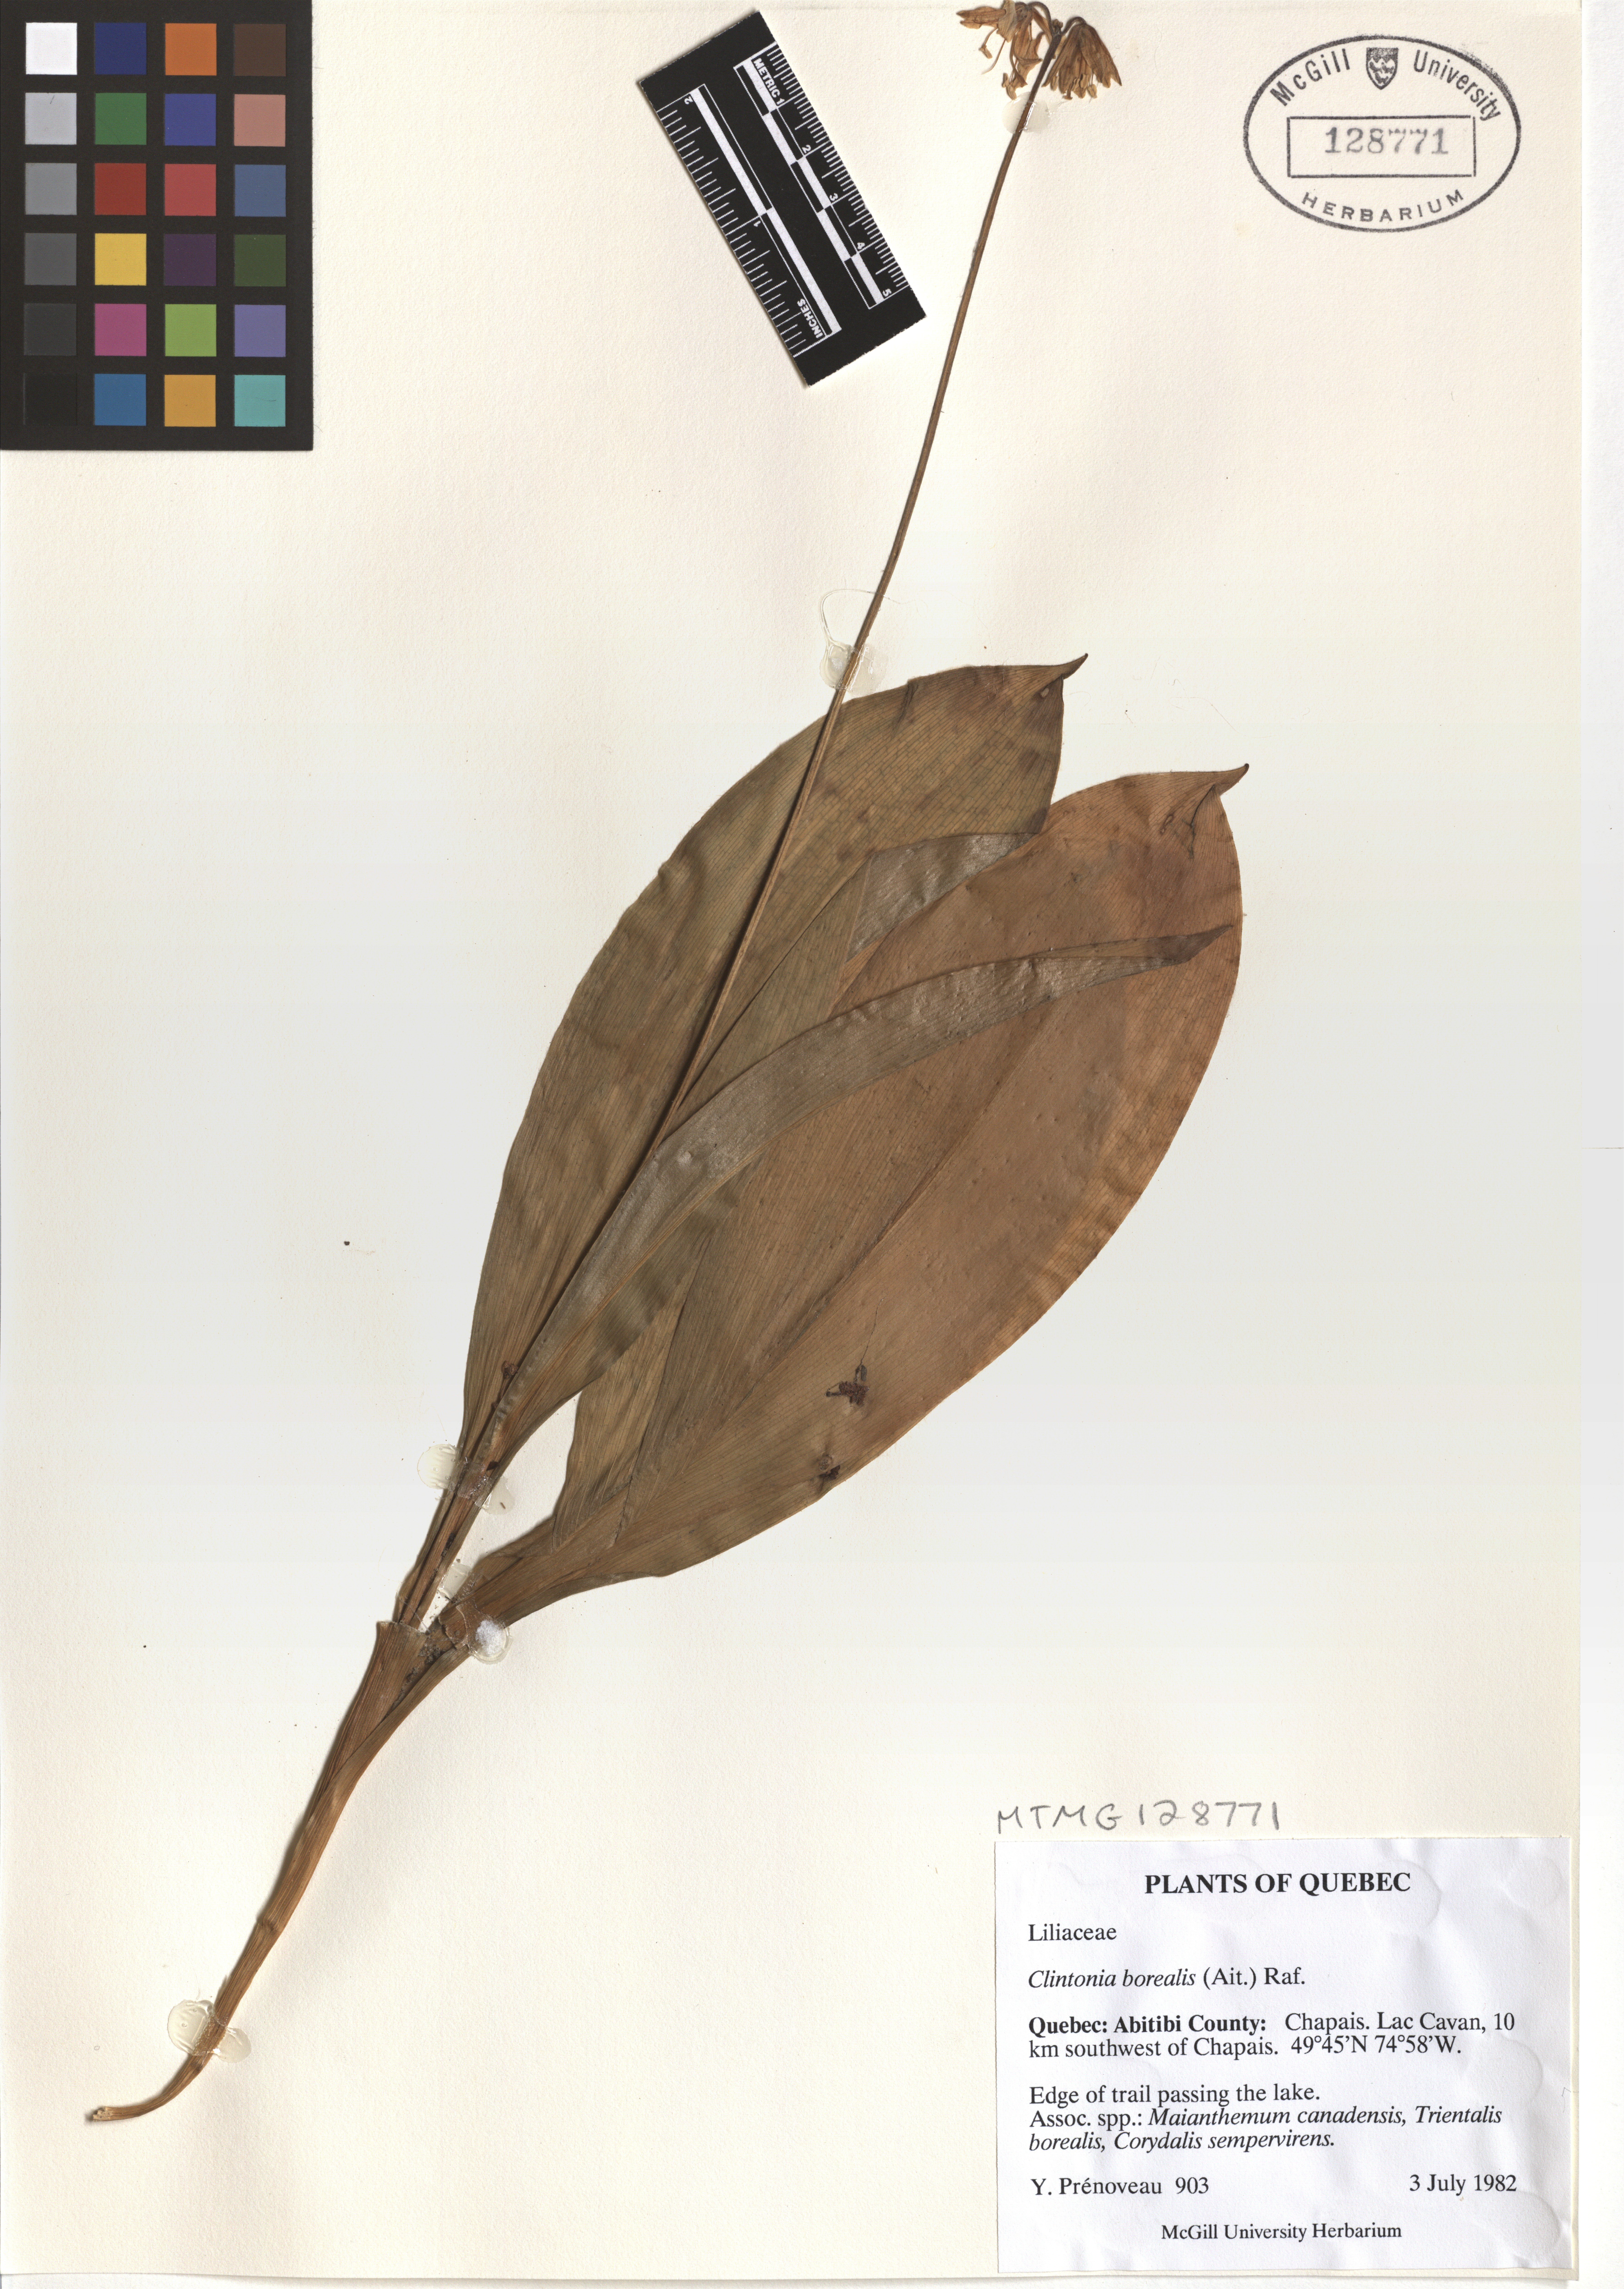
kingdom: Plantae
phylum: Tracheophyta
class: Liliopsida
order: Liliales
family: Liliaceae
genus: Clintonia
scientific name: Clintonia borealis
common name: Yellow clintonia
